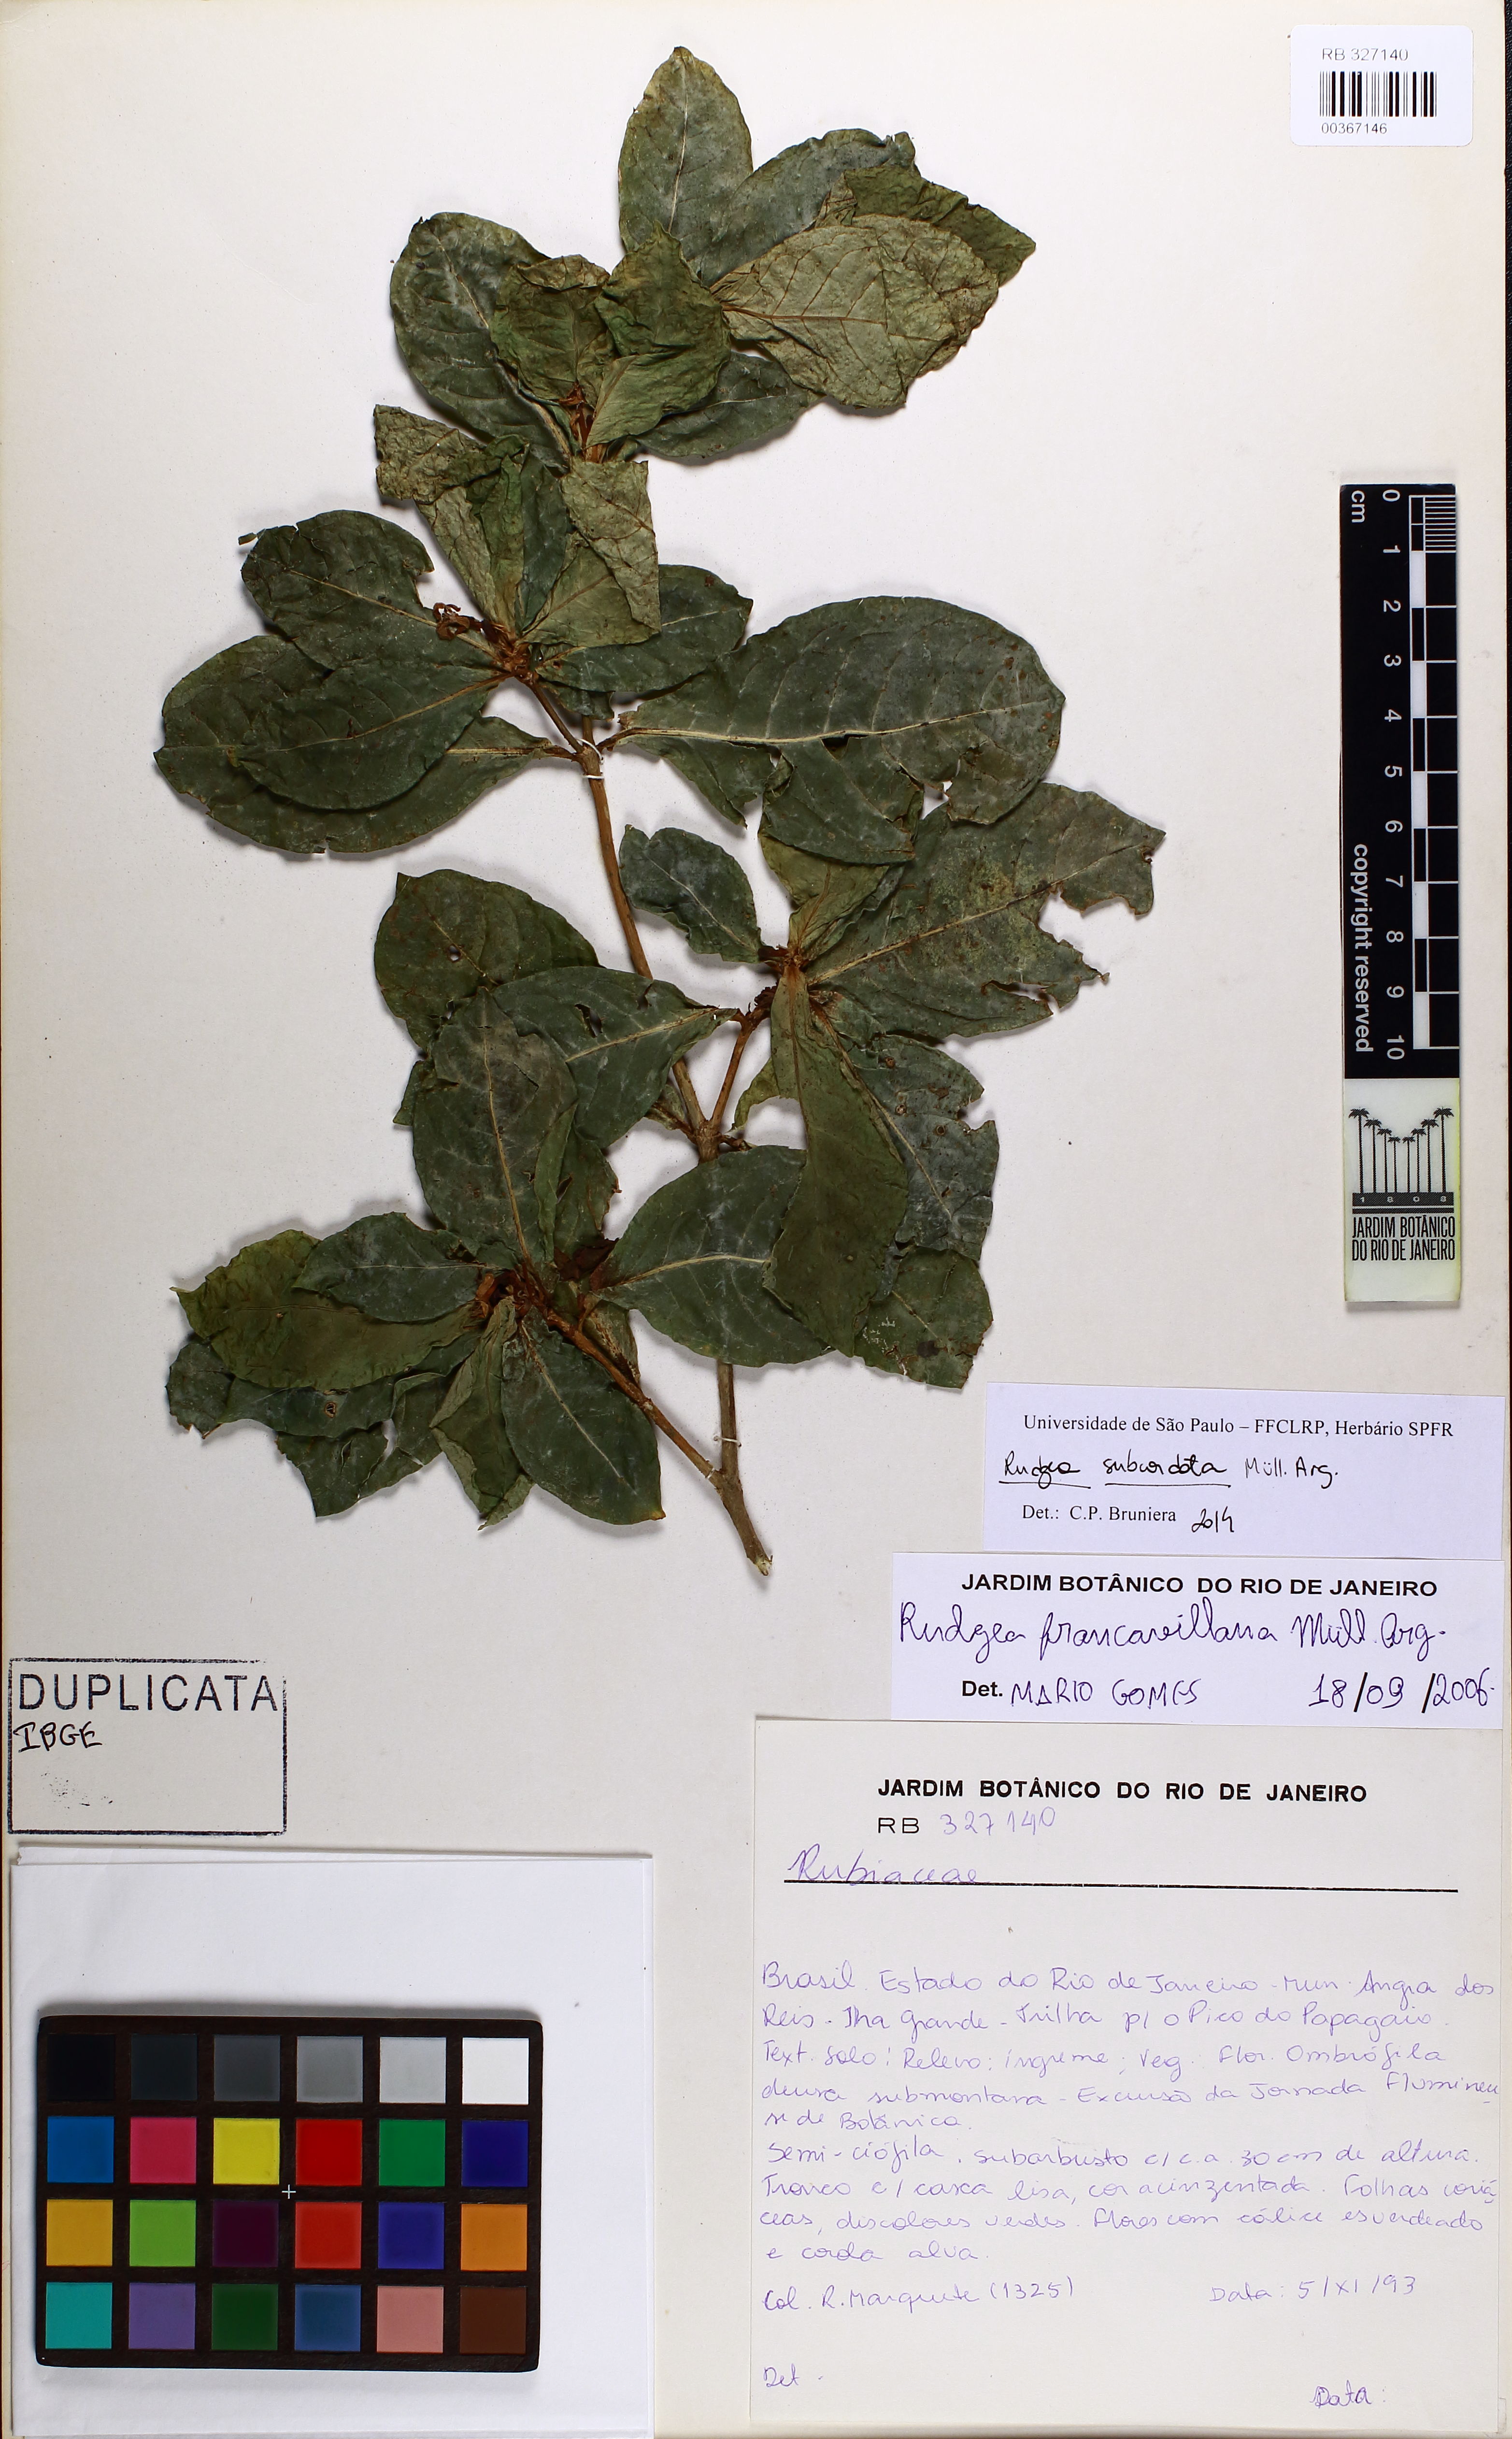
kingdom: Plantae
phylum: Tracheophyta
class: Magnoliopsida
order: Gentianales
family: Rubiaceae
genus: Rudgea
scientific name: Rudgea francavillana
